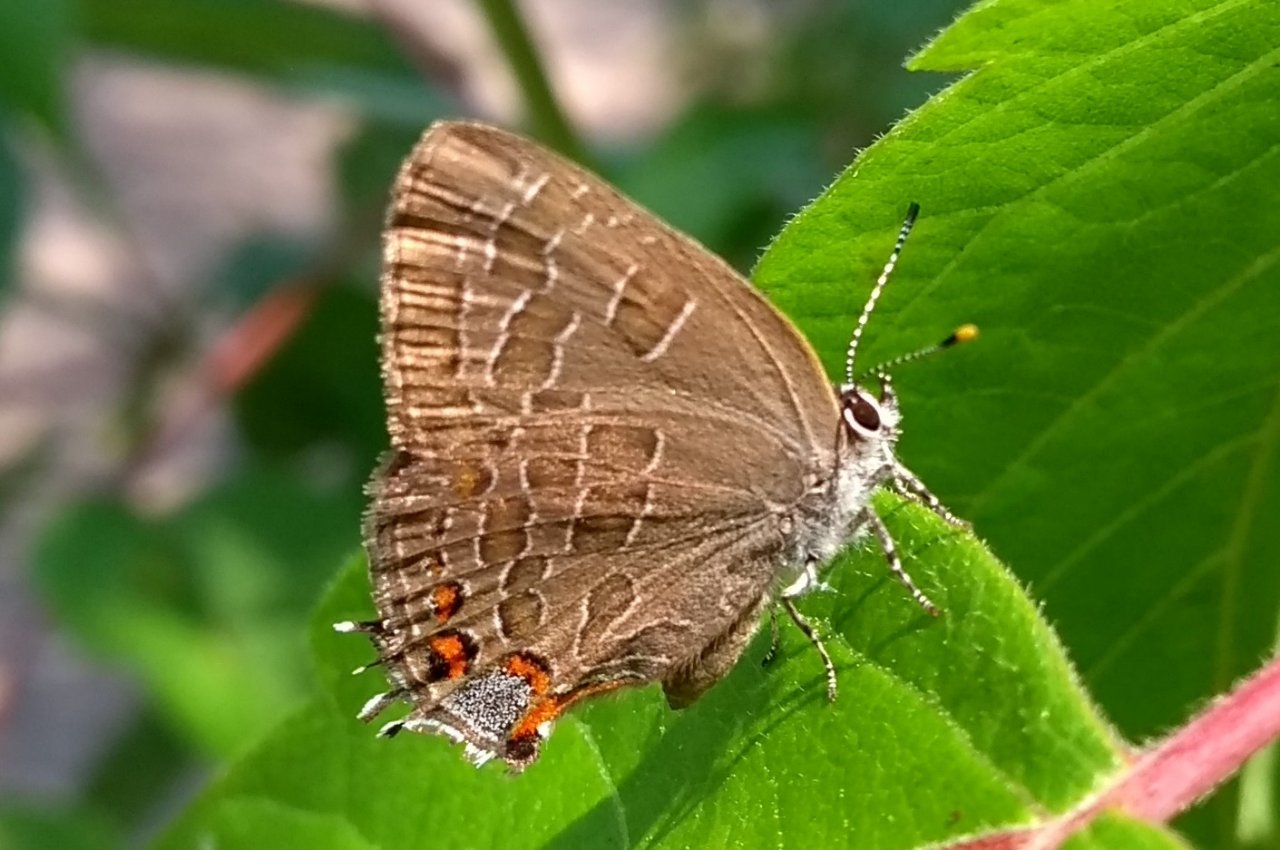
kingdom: Animalia
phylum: Arthropoda
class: Insecta
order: Lepidoptera
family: Lycaenidae
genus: Satyrium
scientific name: Satyrium liparops
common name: Striped Hairstreak
